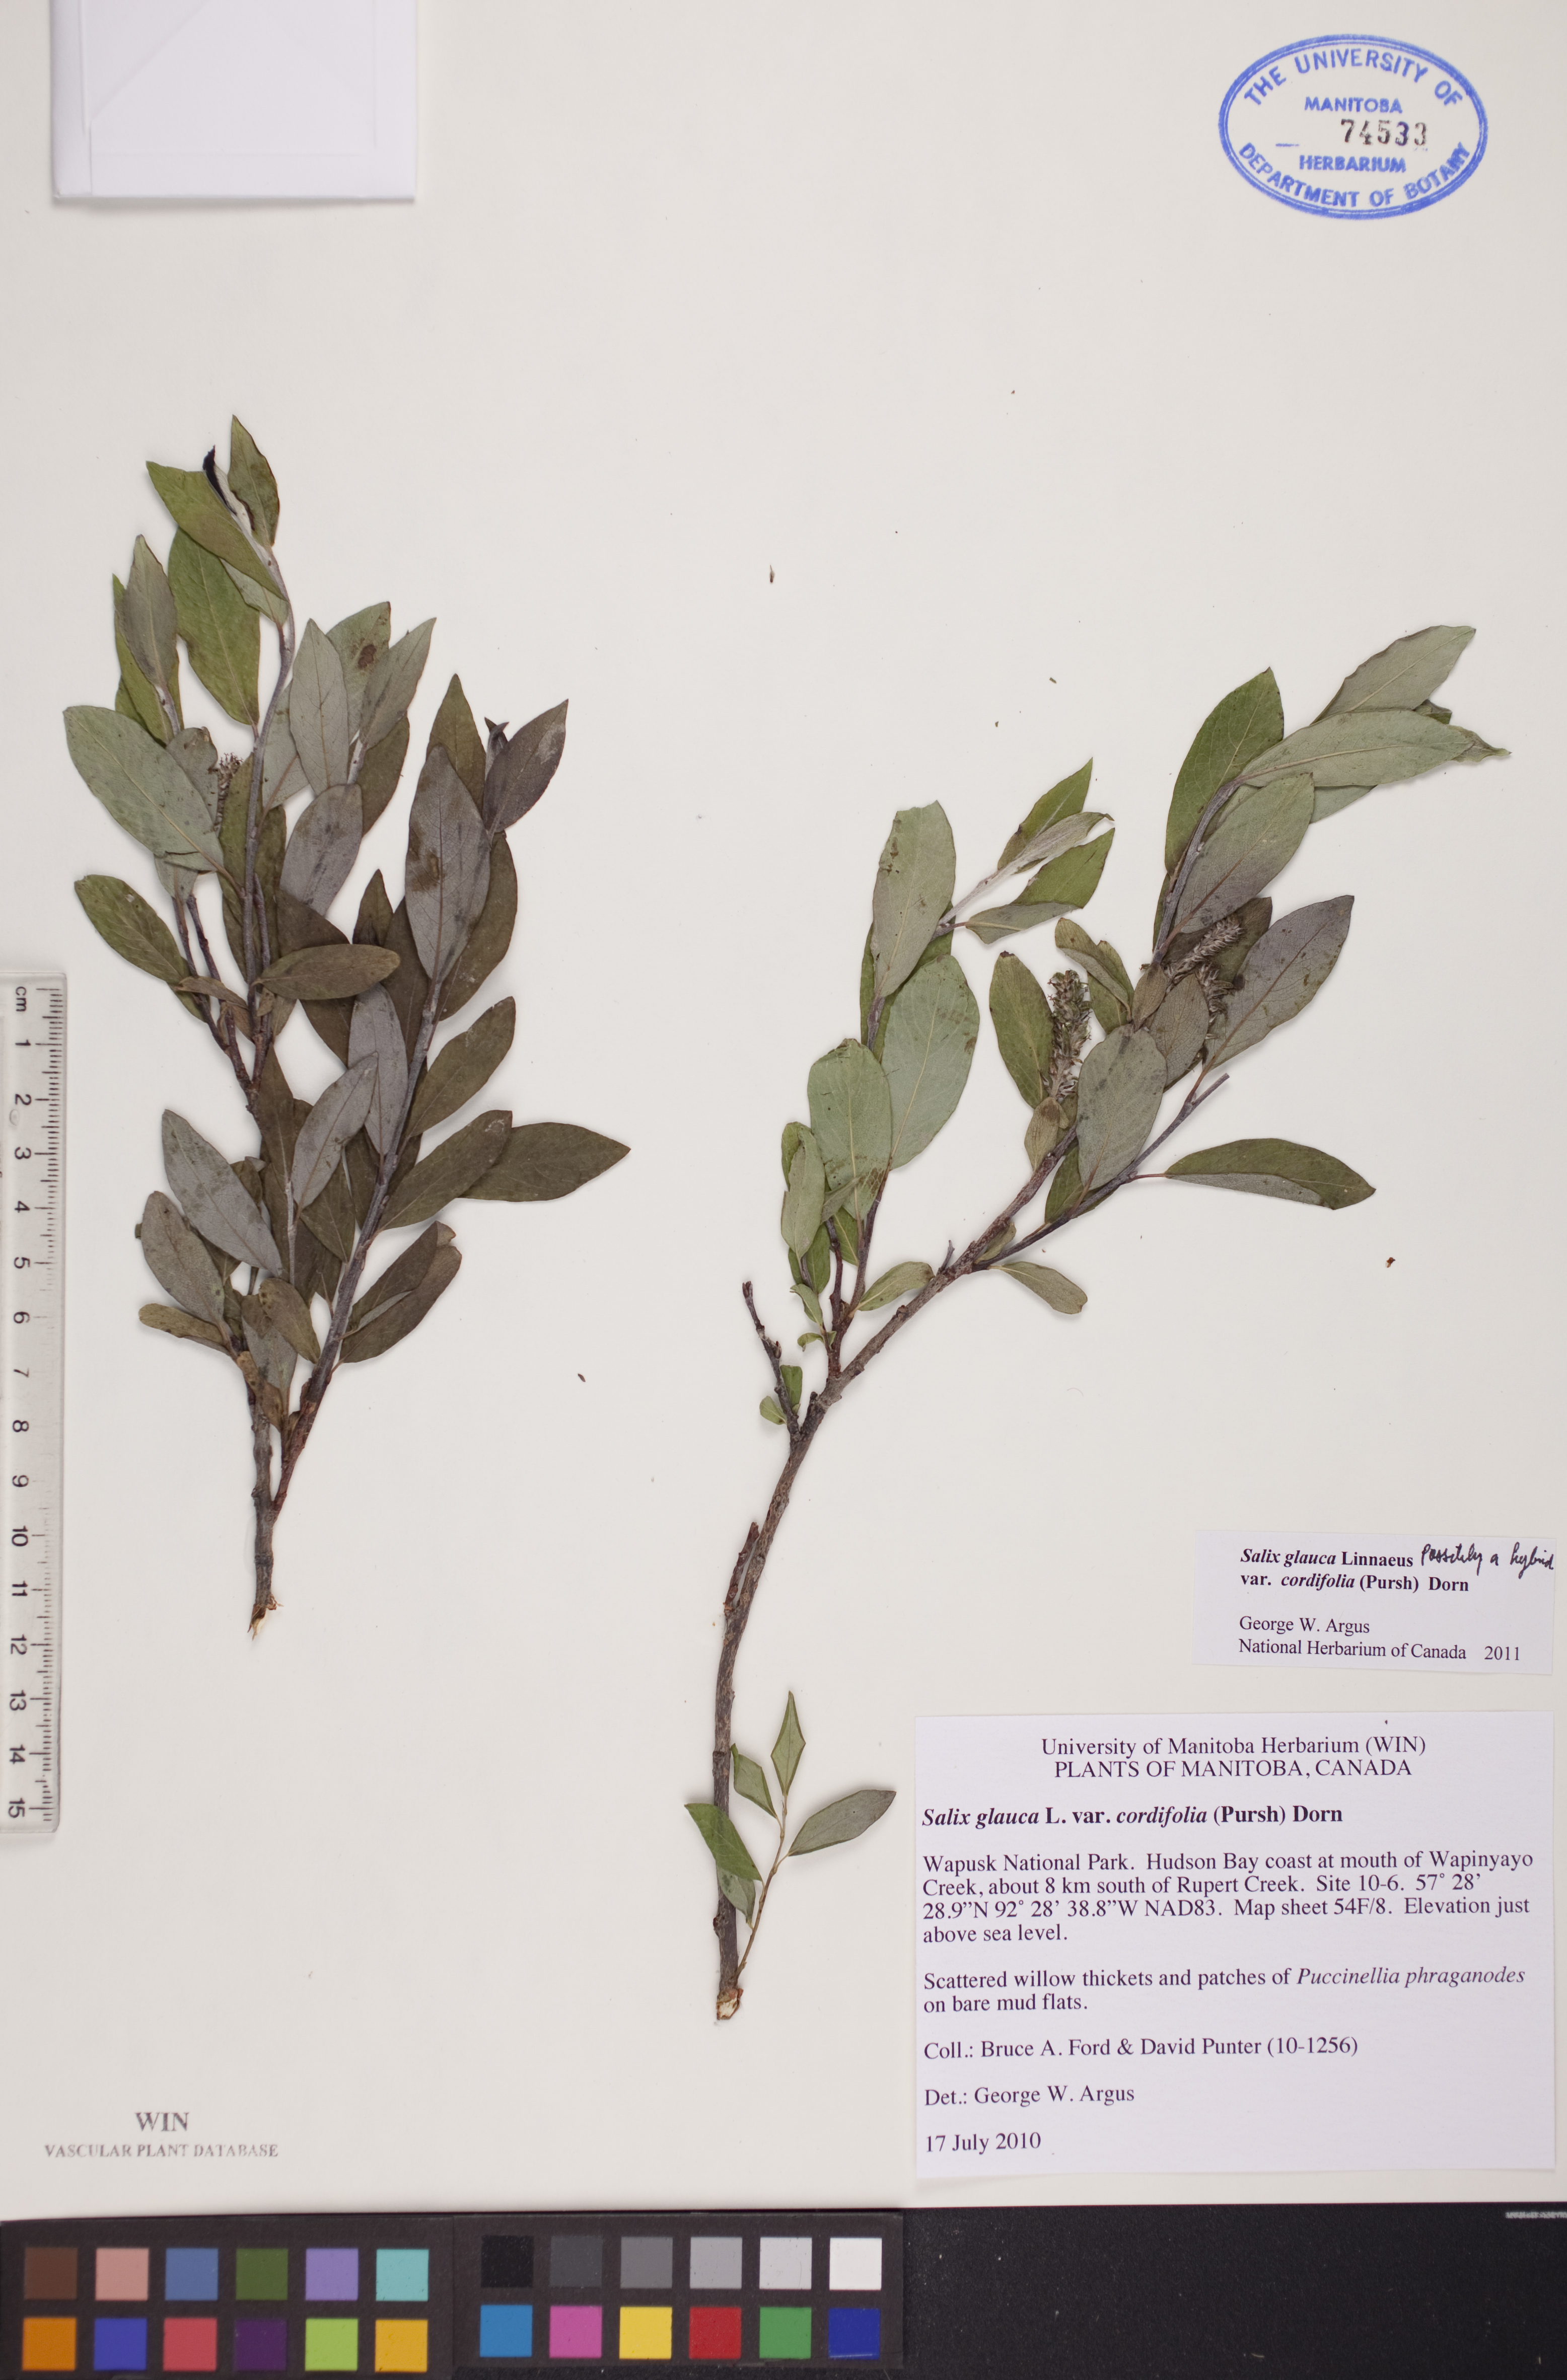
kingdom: Plantae
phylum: Tracheophyta
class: Magnoliopsida
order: Malpighiales
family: Salicaceae
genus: Salix
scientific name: Salix glauca
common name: Glaucous willow
